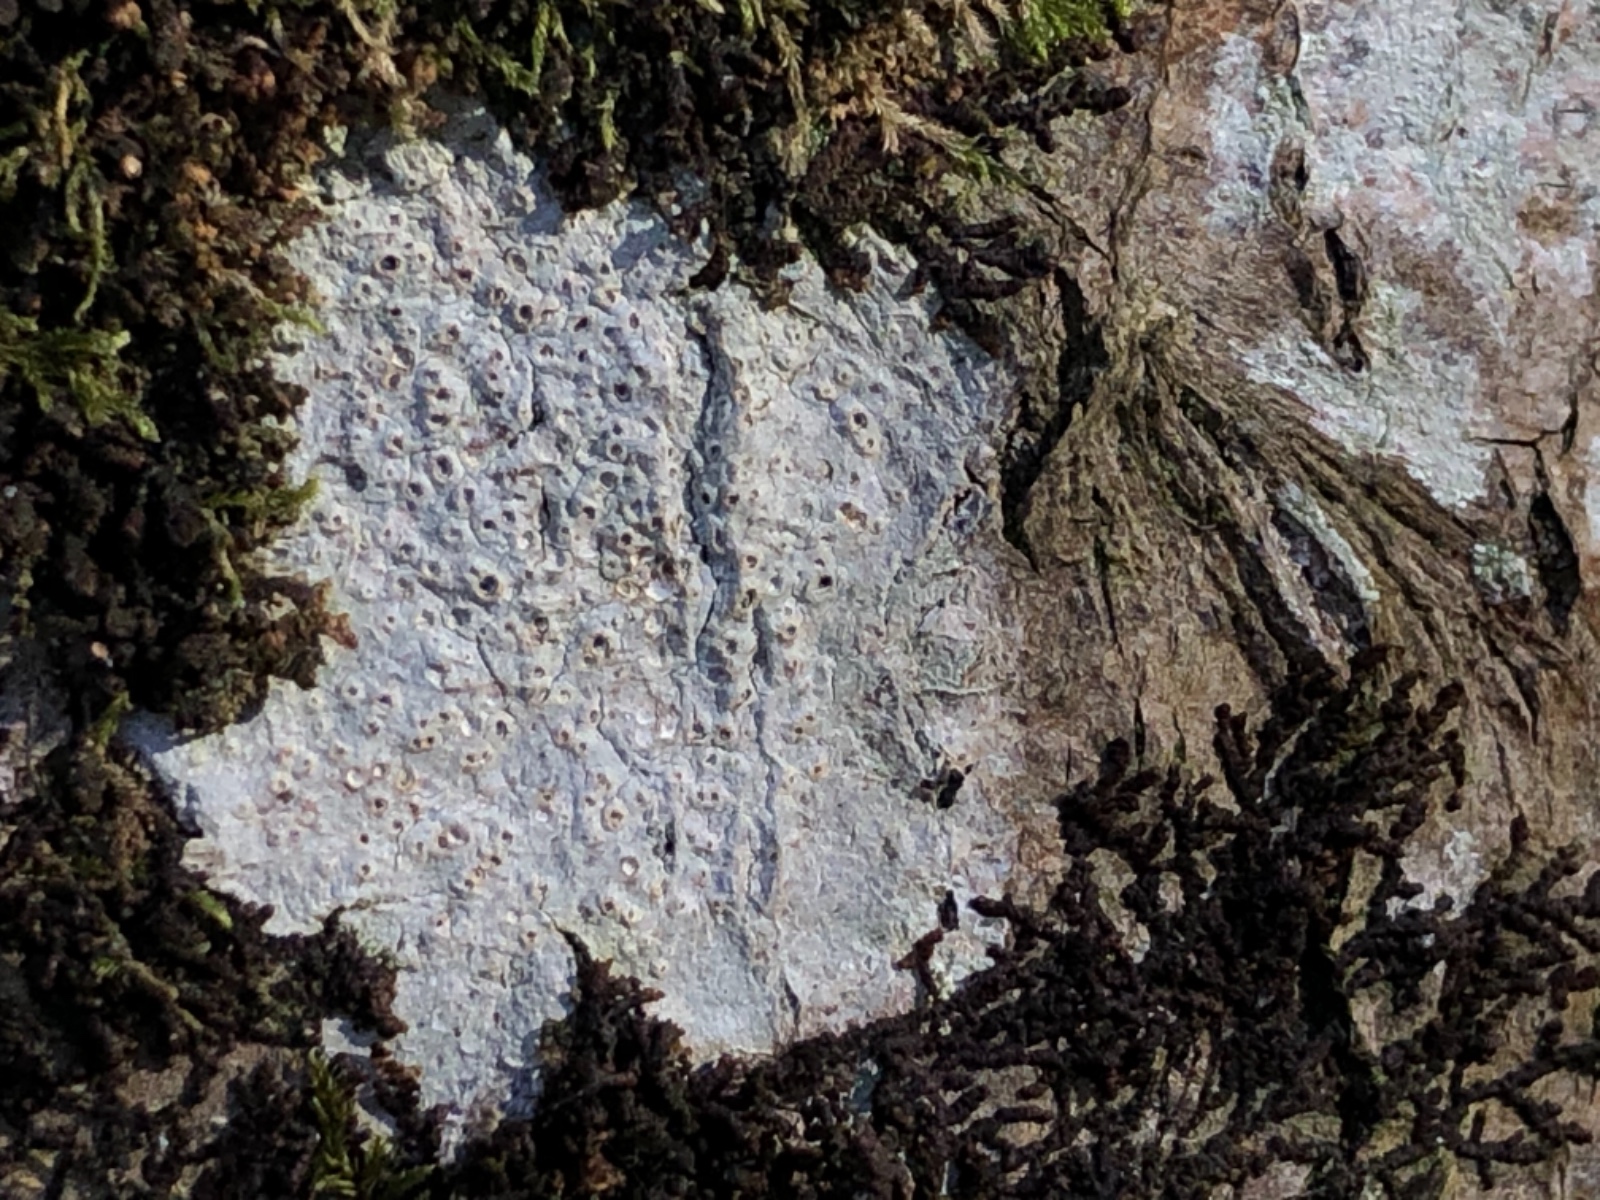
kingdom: Fungi
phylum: Ascomycota
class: Lecanoromycetes
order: Ostropales
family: Graphidaceae
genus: Thelotrema
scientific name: Thelotrema lepadinum
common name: almindelig slørkantlav
